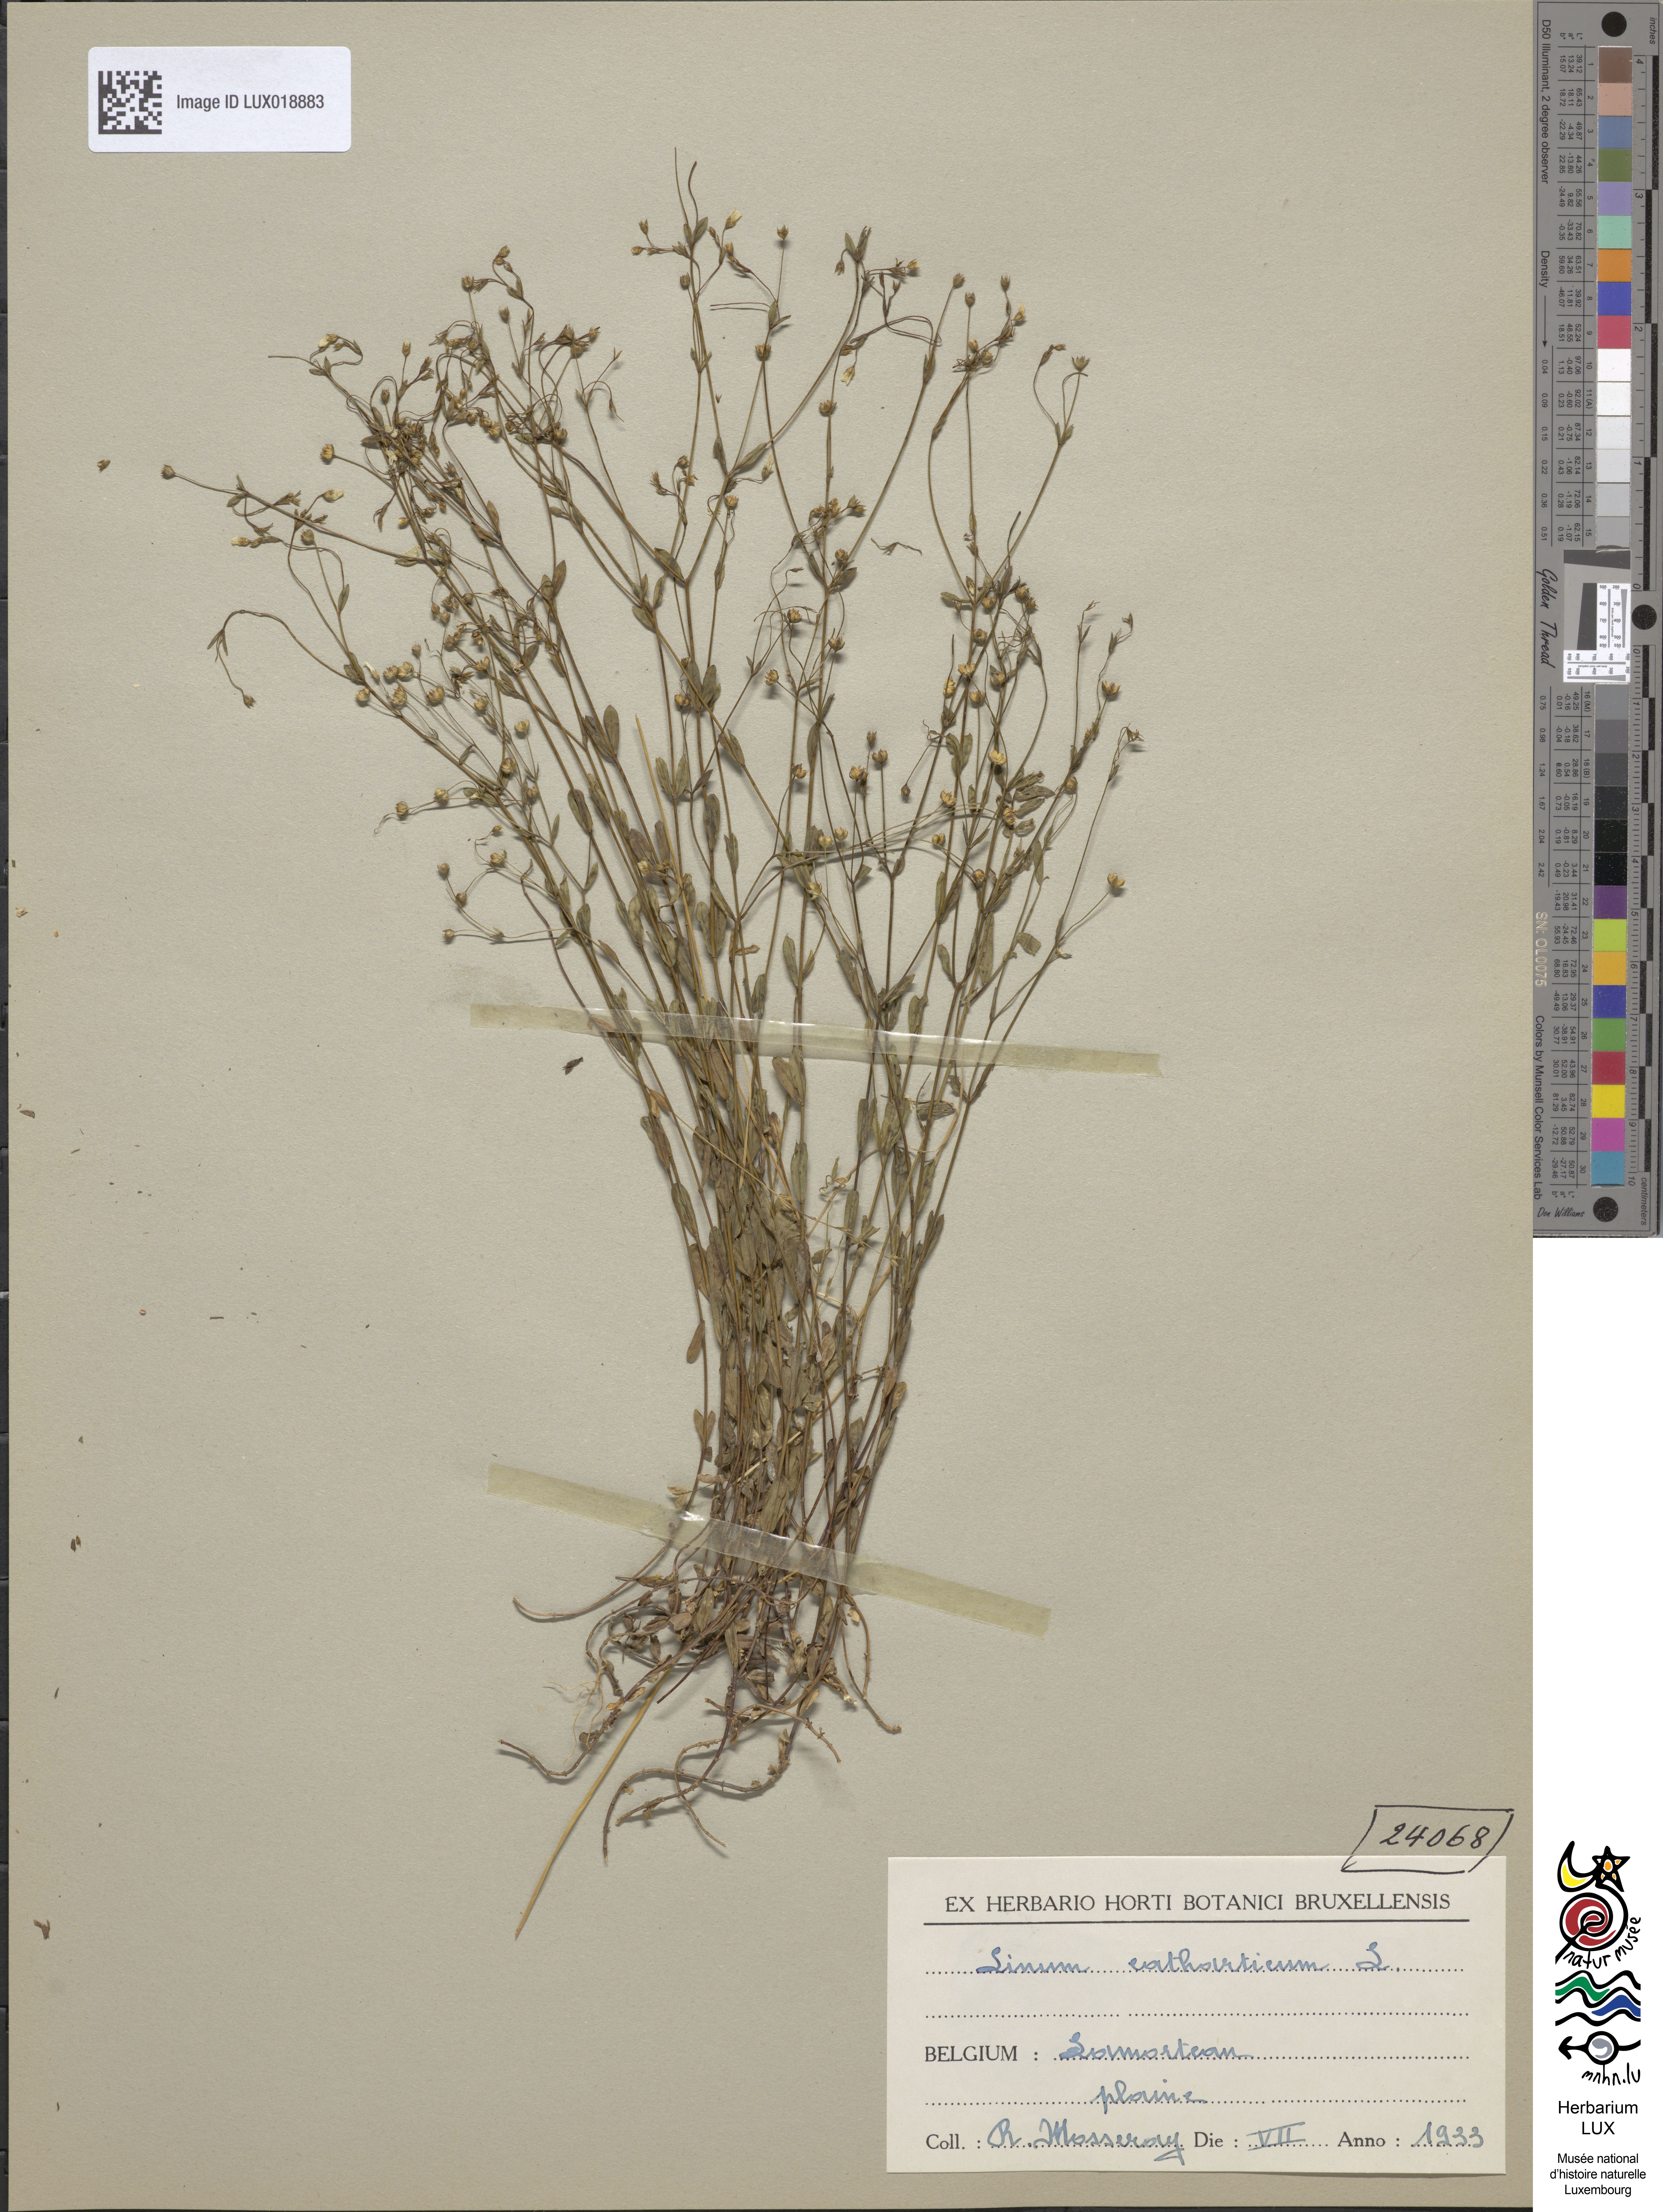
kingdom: Plantae
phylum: Tracheophyta
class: Magnoliopsida
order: Malpighiales
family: Linaceae
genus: Linum
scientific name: Linum catharticum
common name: Fairy flax
